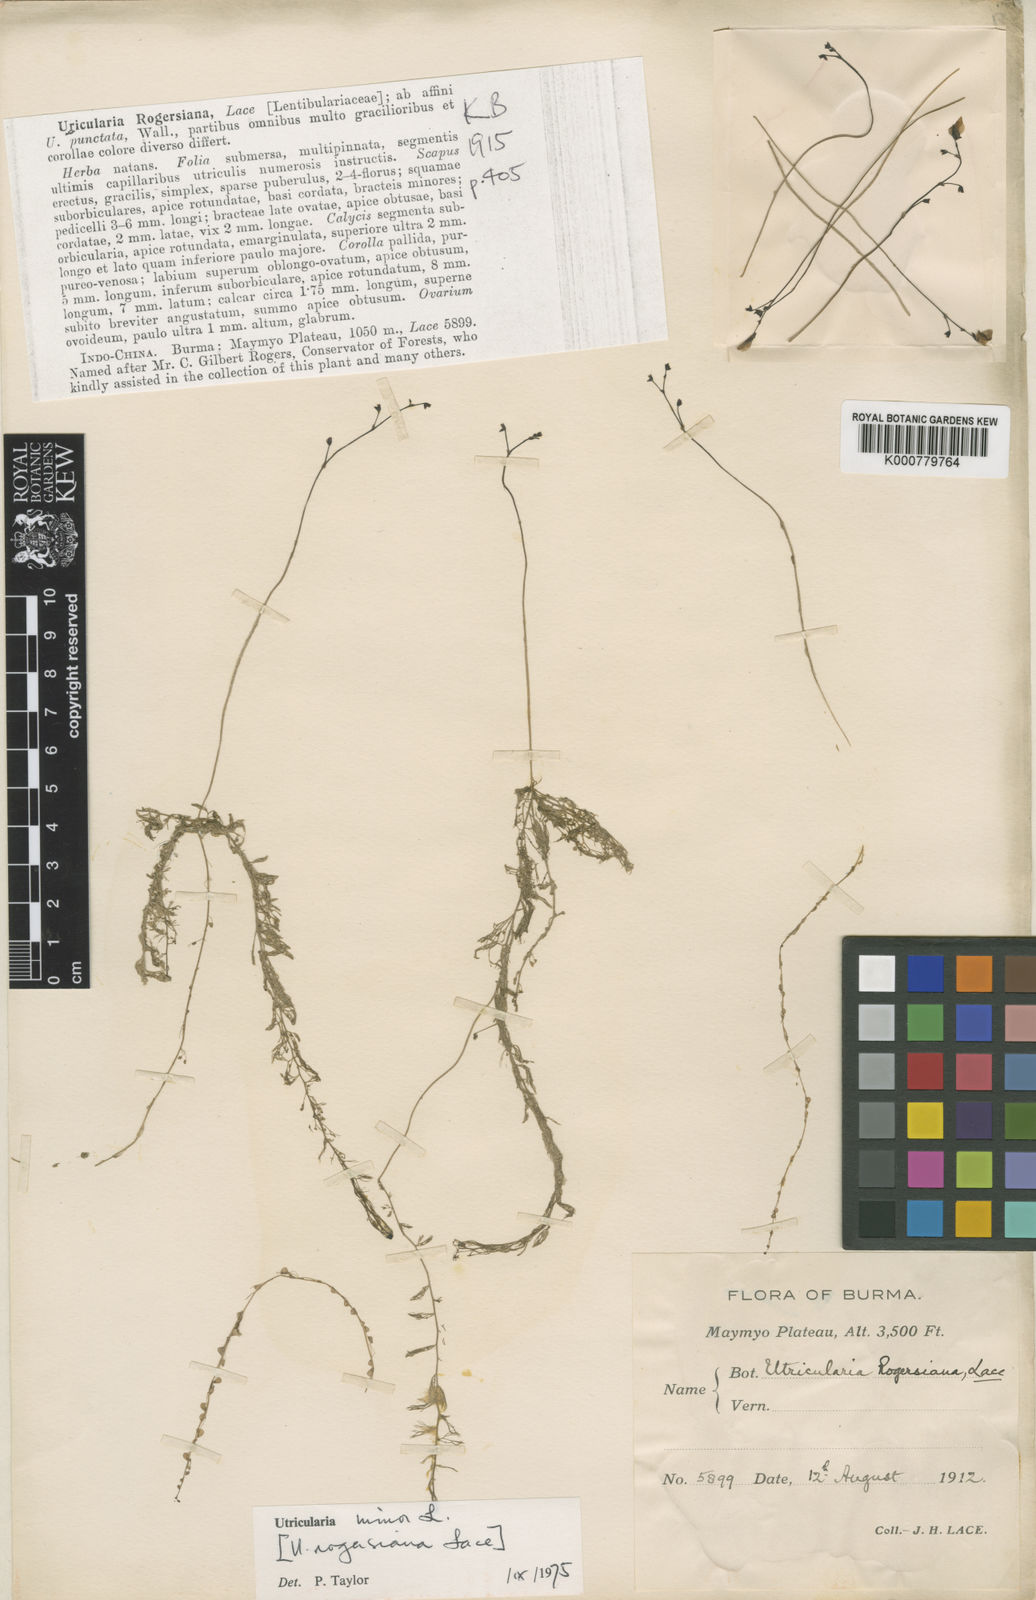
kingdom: Plantae
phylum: Tracheophyta
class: Magnoliopsida
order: Lamiales
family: Lentibulariaceae
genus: Utricularia
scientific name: Utricularia minor
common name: Lesser bladderwort
